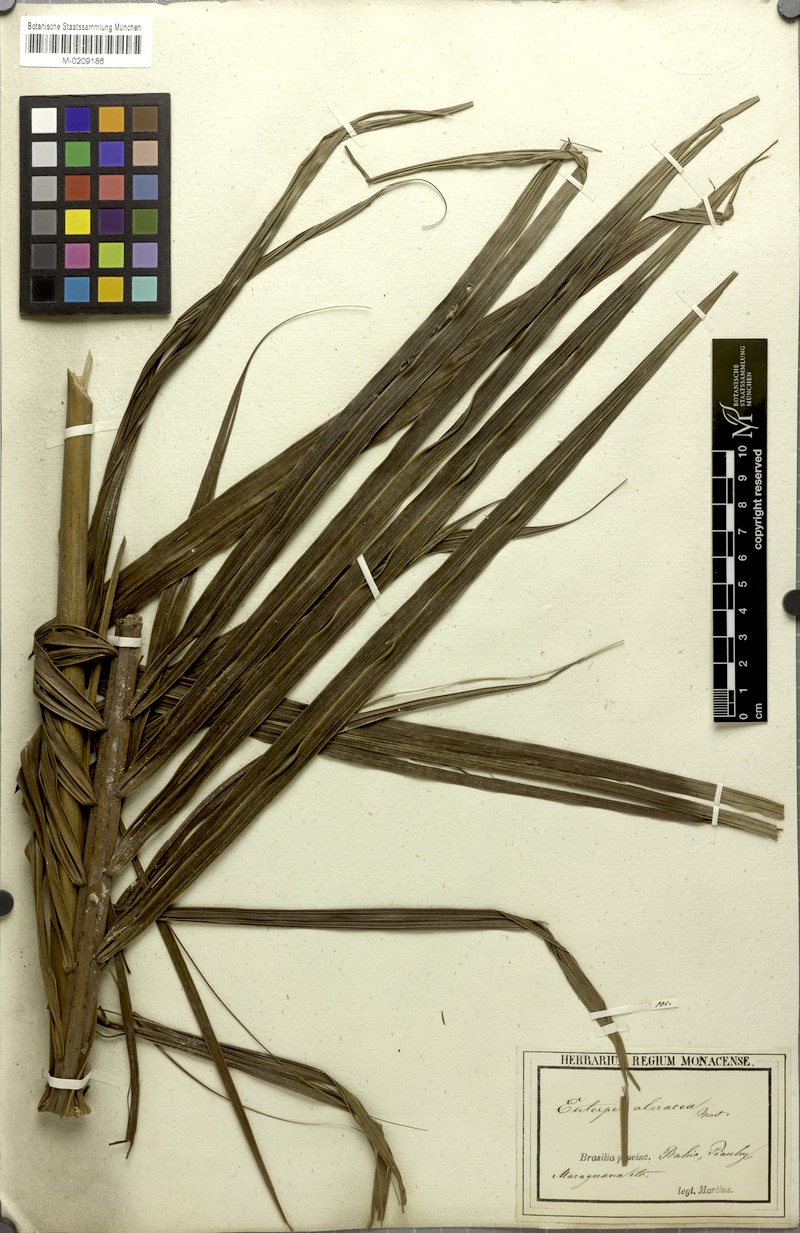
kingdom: Plantae
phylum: Tracheophyta
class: Liliopsida
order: Arecales
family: Arecaceae
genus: Euterpe
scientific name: Euterpe oleracea
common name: Assai palm
